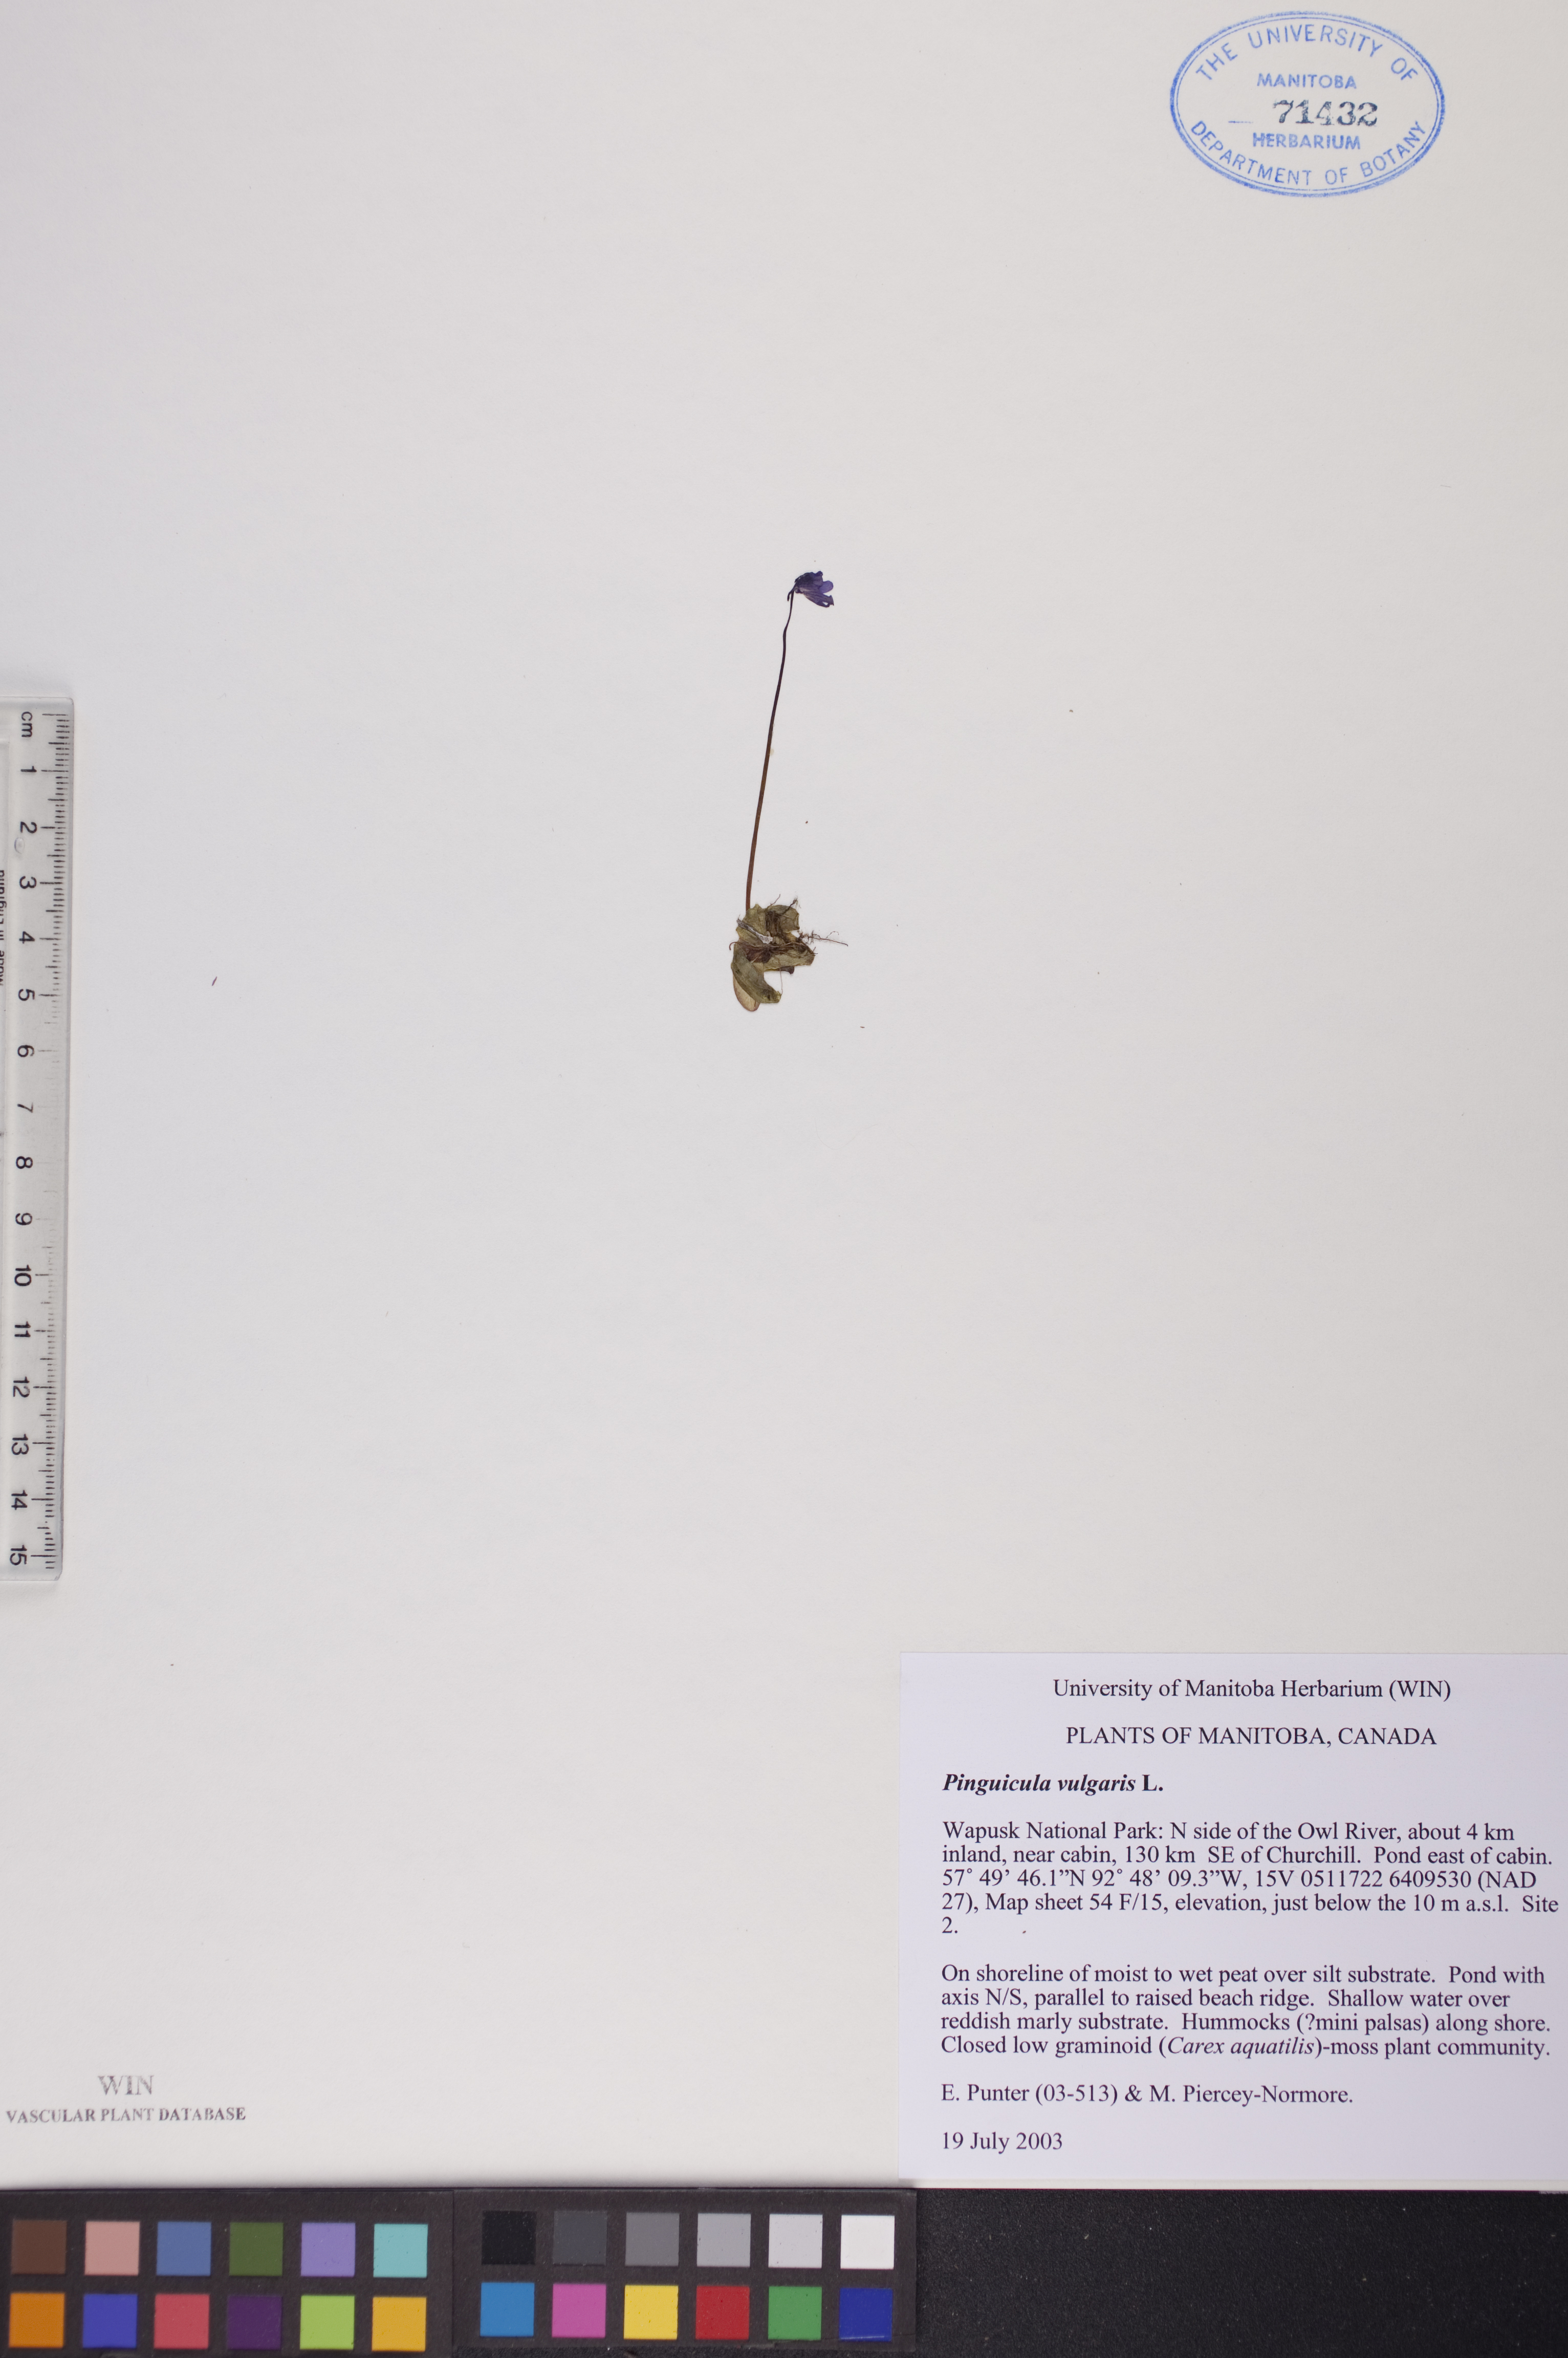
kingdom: Plantae
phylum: Tracheophyta
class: Magnoliopsida
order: Lamiales
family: Lentibulariaceae
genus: Pinguicula
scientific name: Pinguicula vulgaris
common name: Common butterwort
